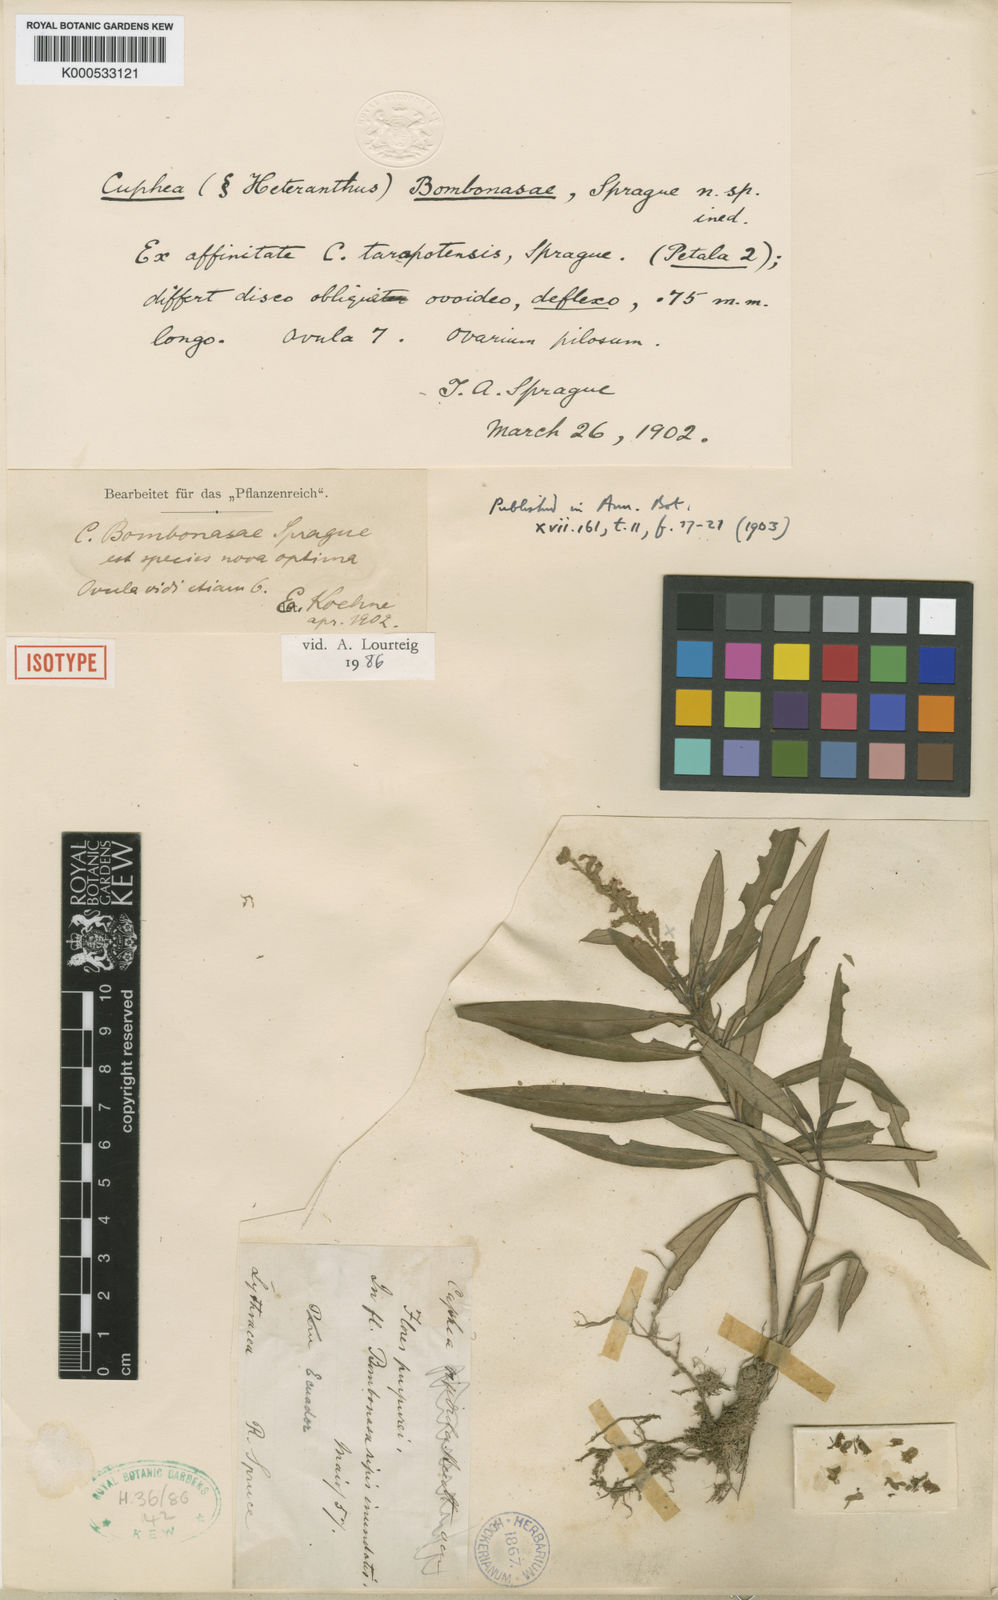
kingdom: Plantae
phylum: Tracheophyta
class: Magnoliopsida
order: Myrtales
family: Lythraceae
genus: Cuphea
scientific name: Cuphea bombonasae
